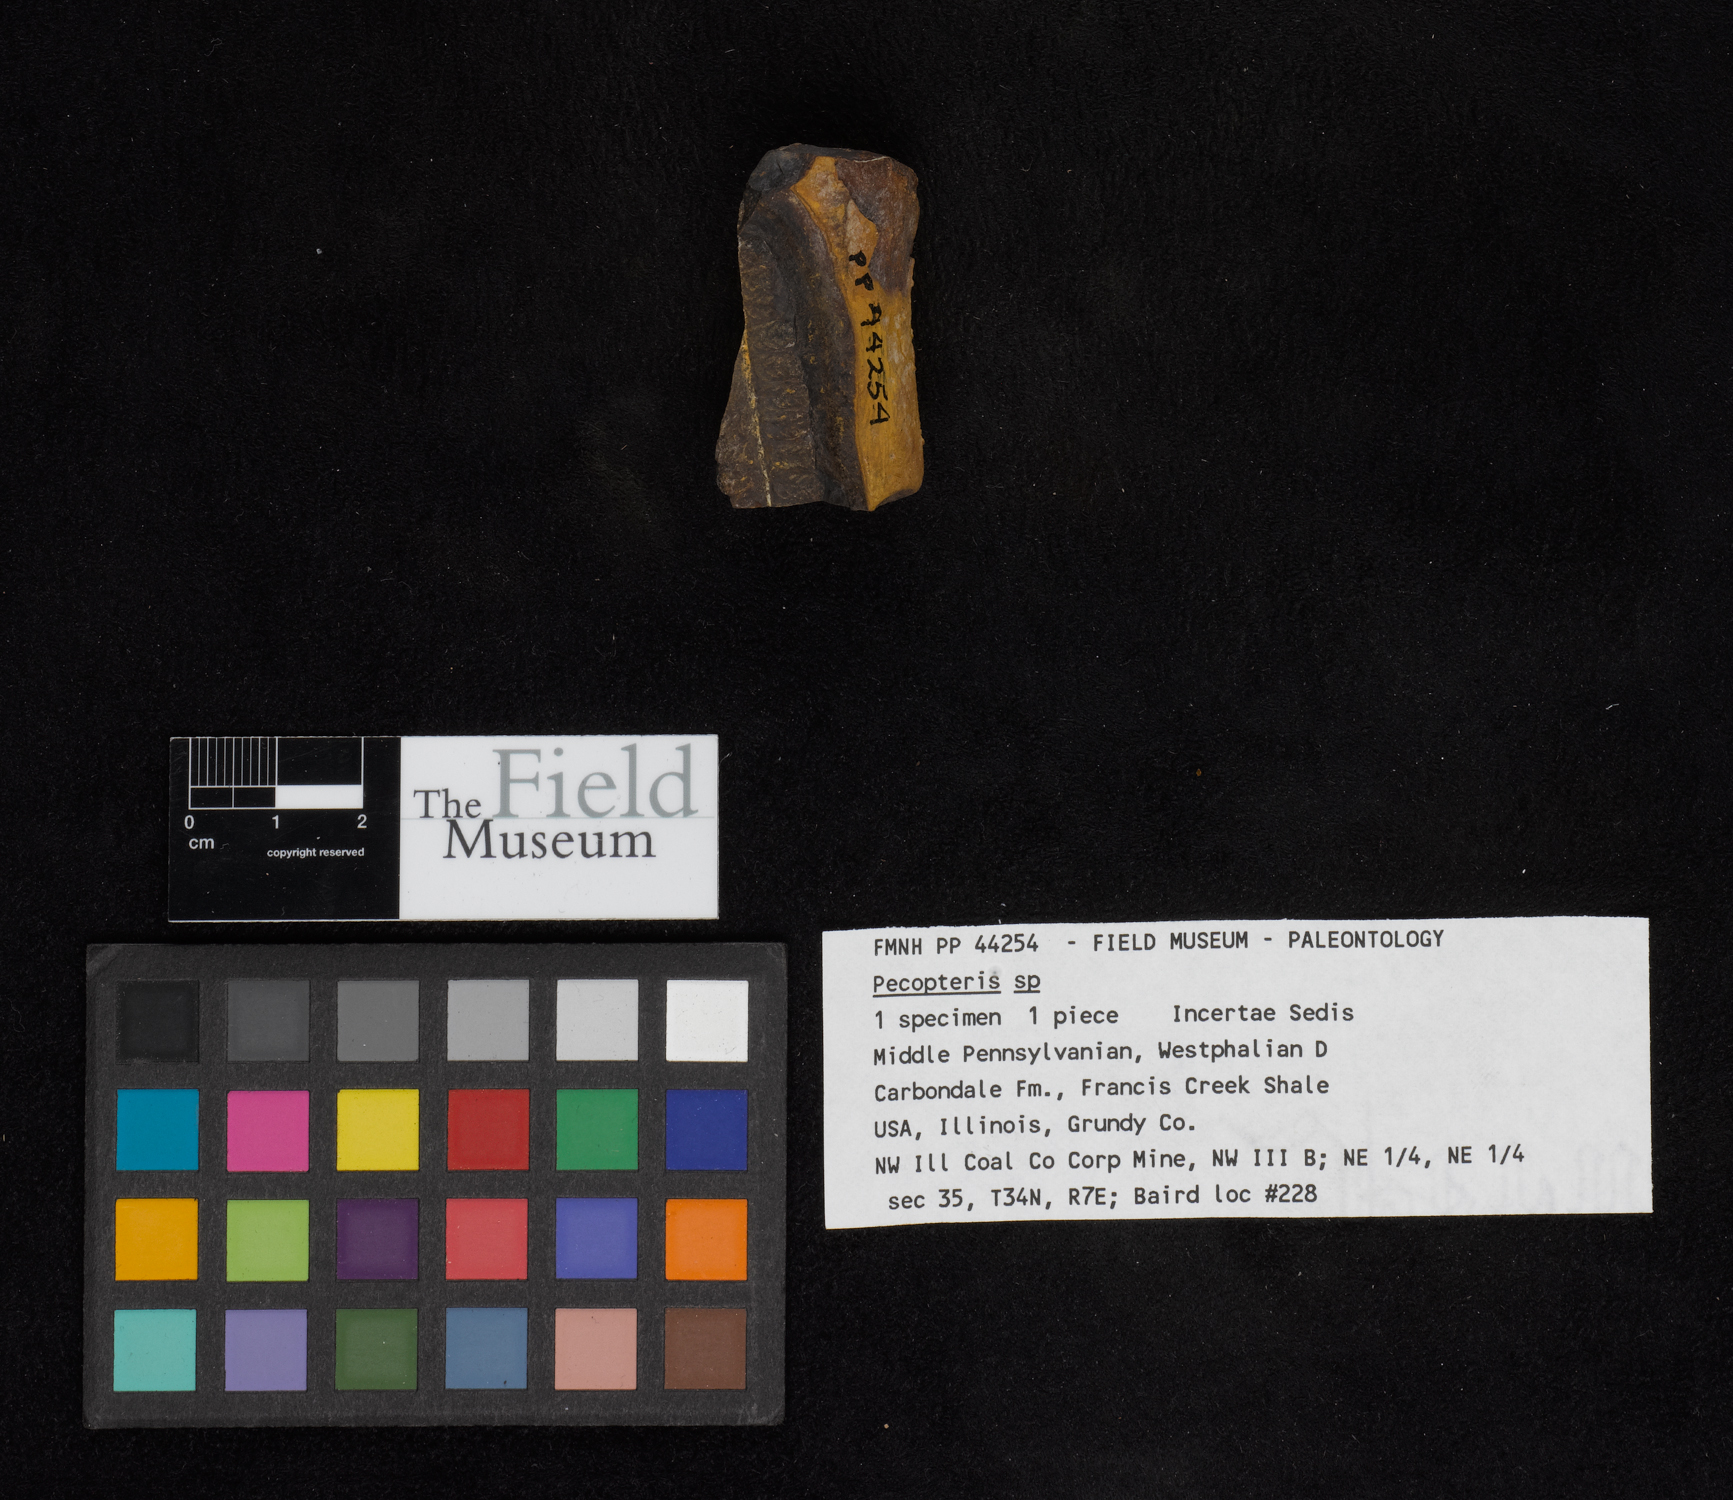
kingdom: Plantae
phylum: Tracheophyta
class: Polypodiopsida
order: Marattiales
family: Asterothecaceae
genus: Pecopteris
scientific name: Pecopteris
